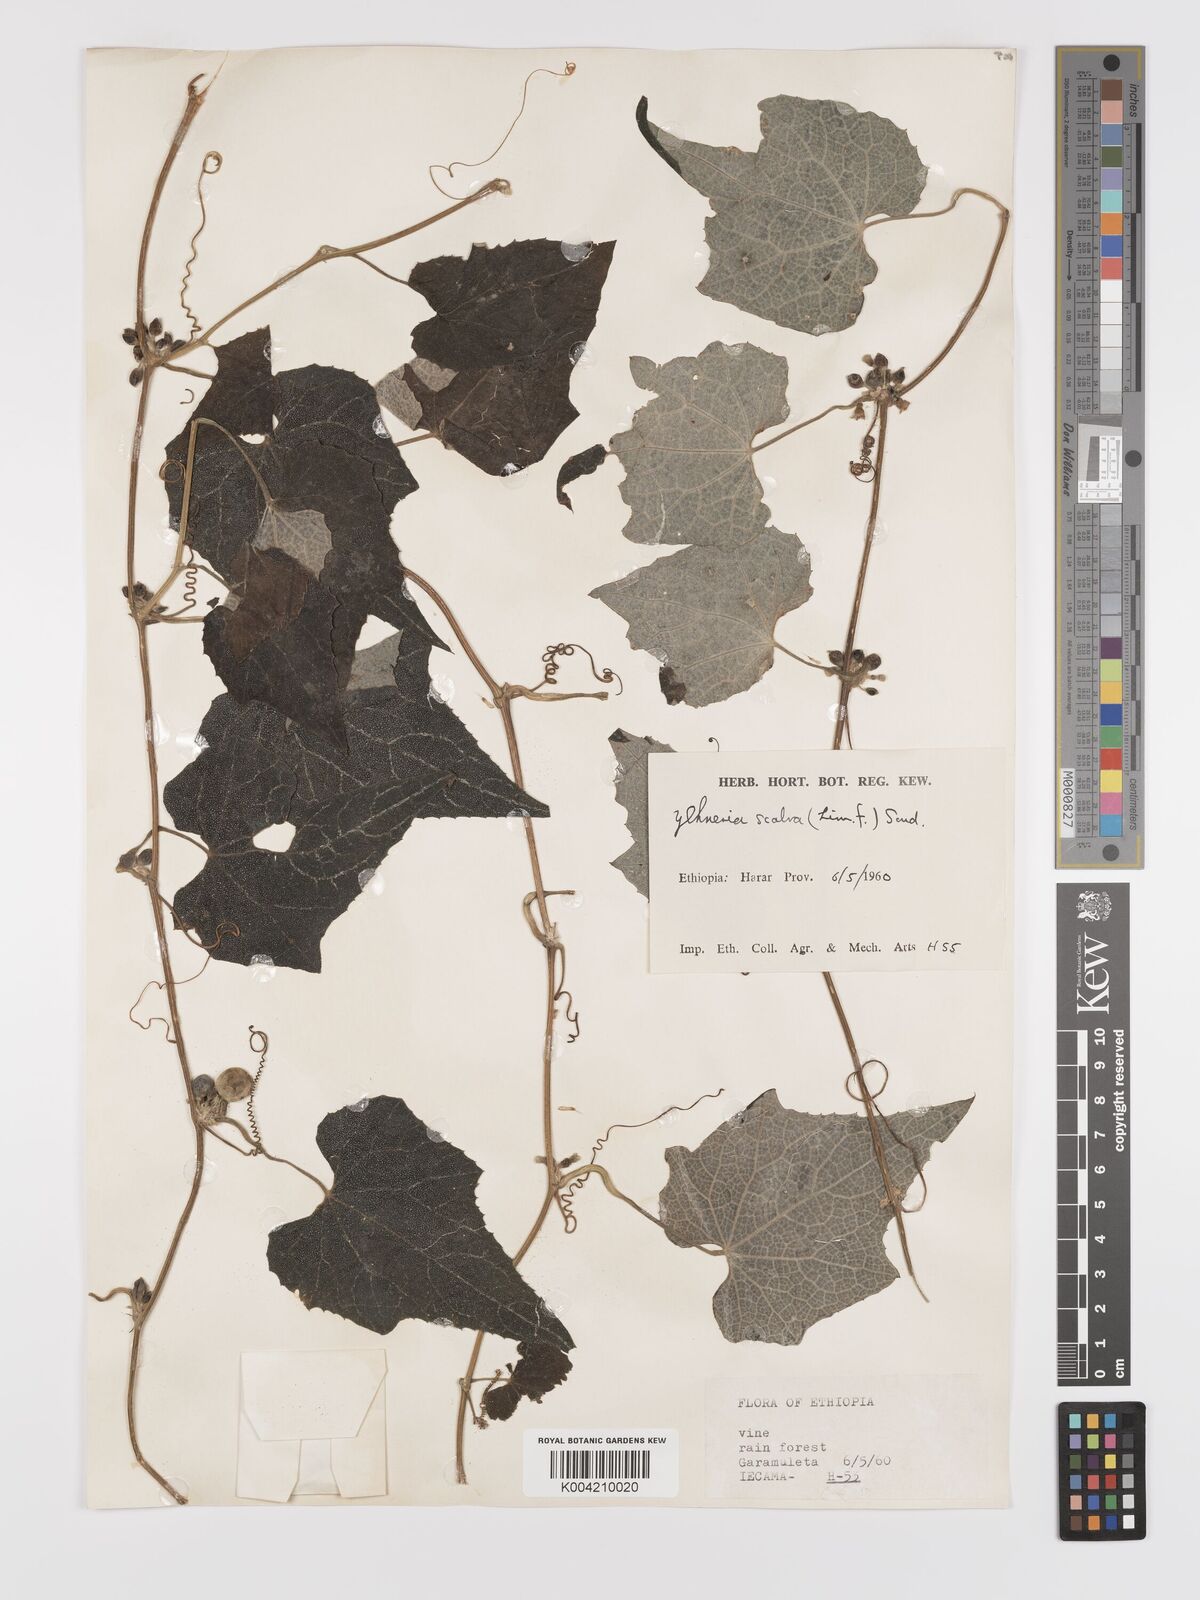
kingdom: Plantae
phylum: Tracheophyta
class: Magnoliopsida
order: Cucurbitales
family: Cucurbitaceae
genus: Zehneria
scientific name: Zehneria scabra
